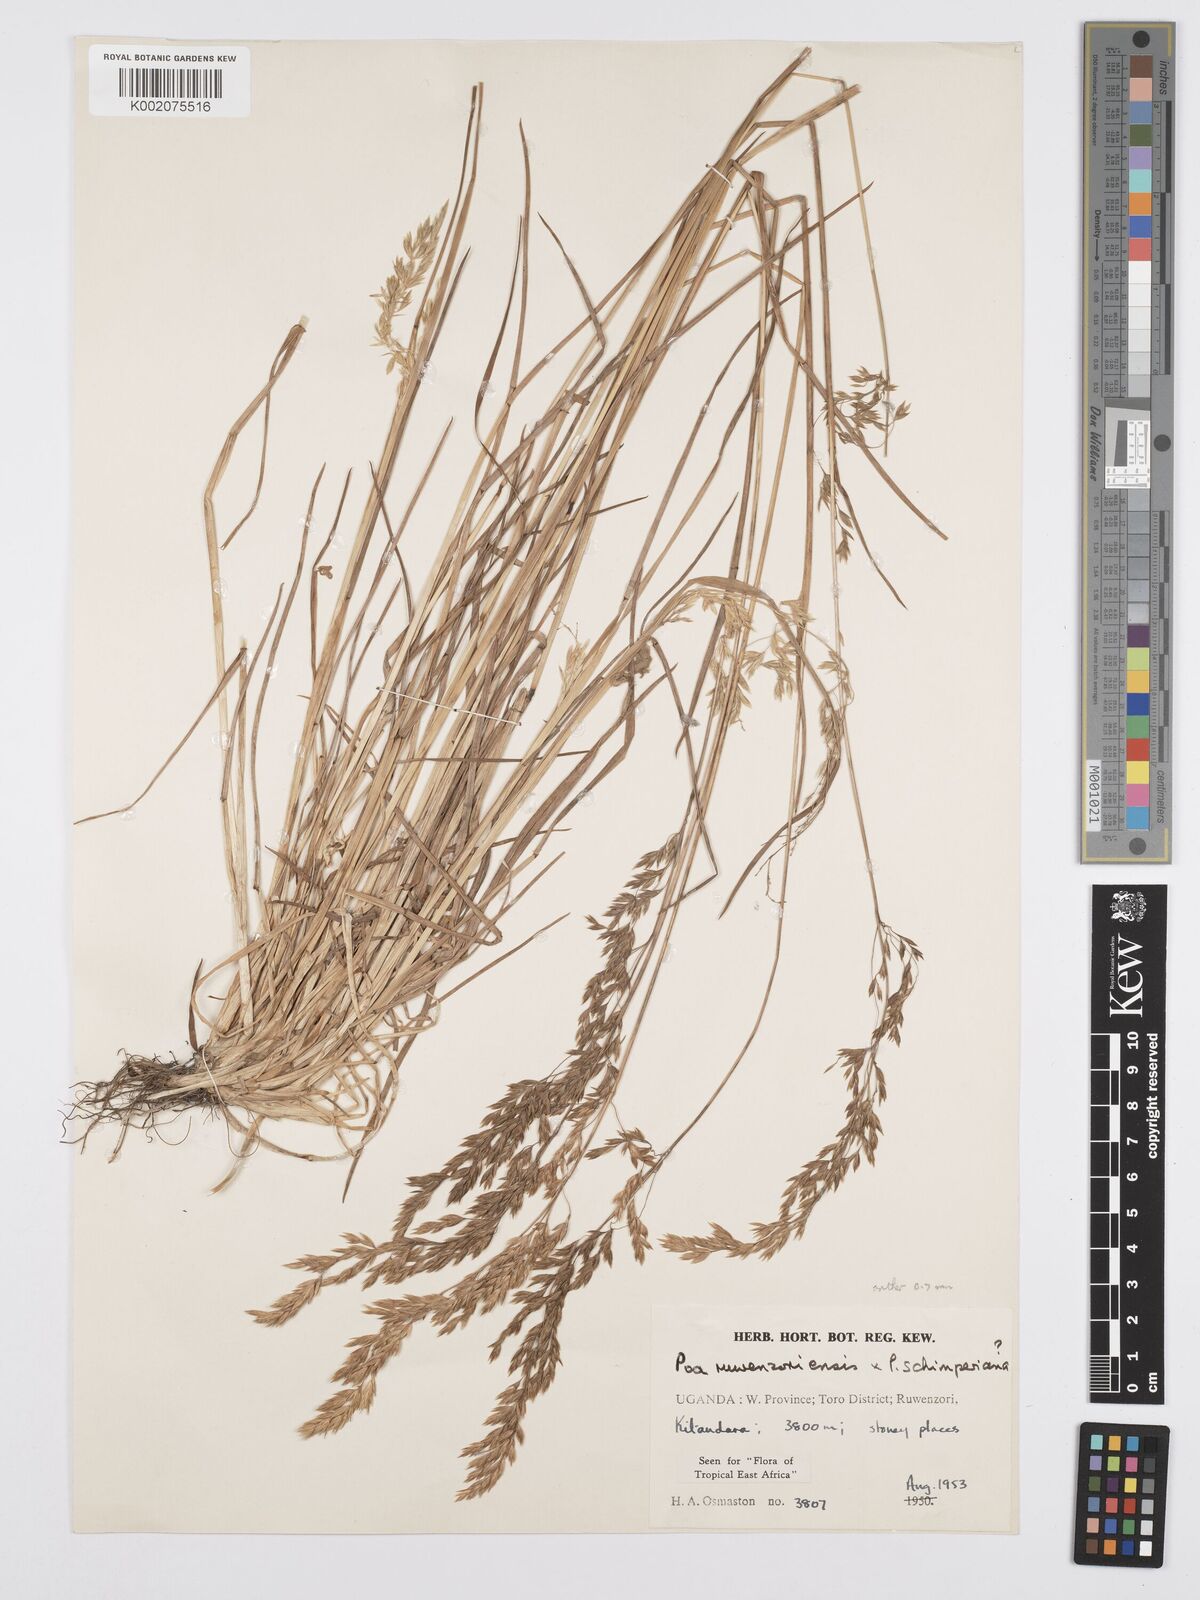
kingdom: Plantae
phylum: Tracheophyta
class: Liliopsida
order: Poales
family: Poaceae
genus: Poa
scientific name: Poa ruwenzoriensis
